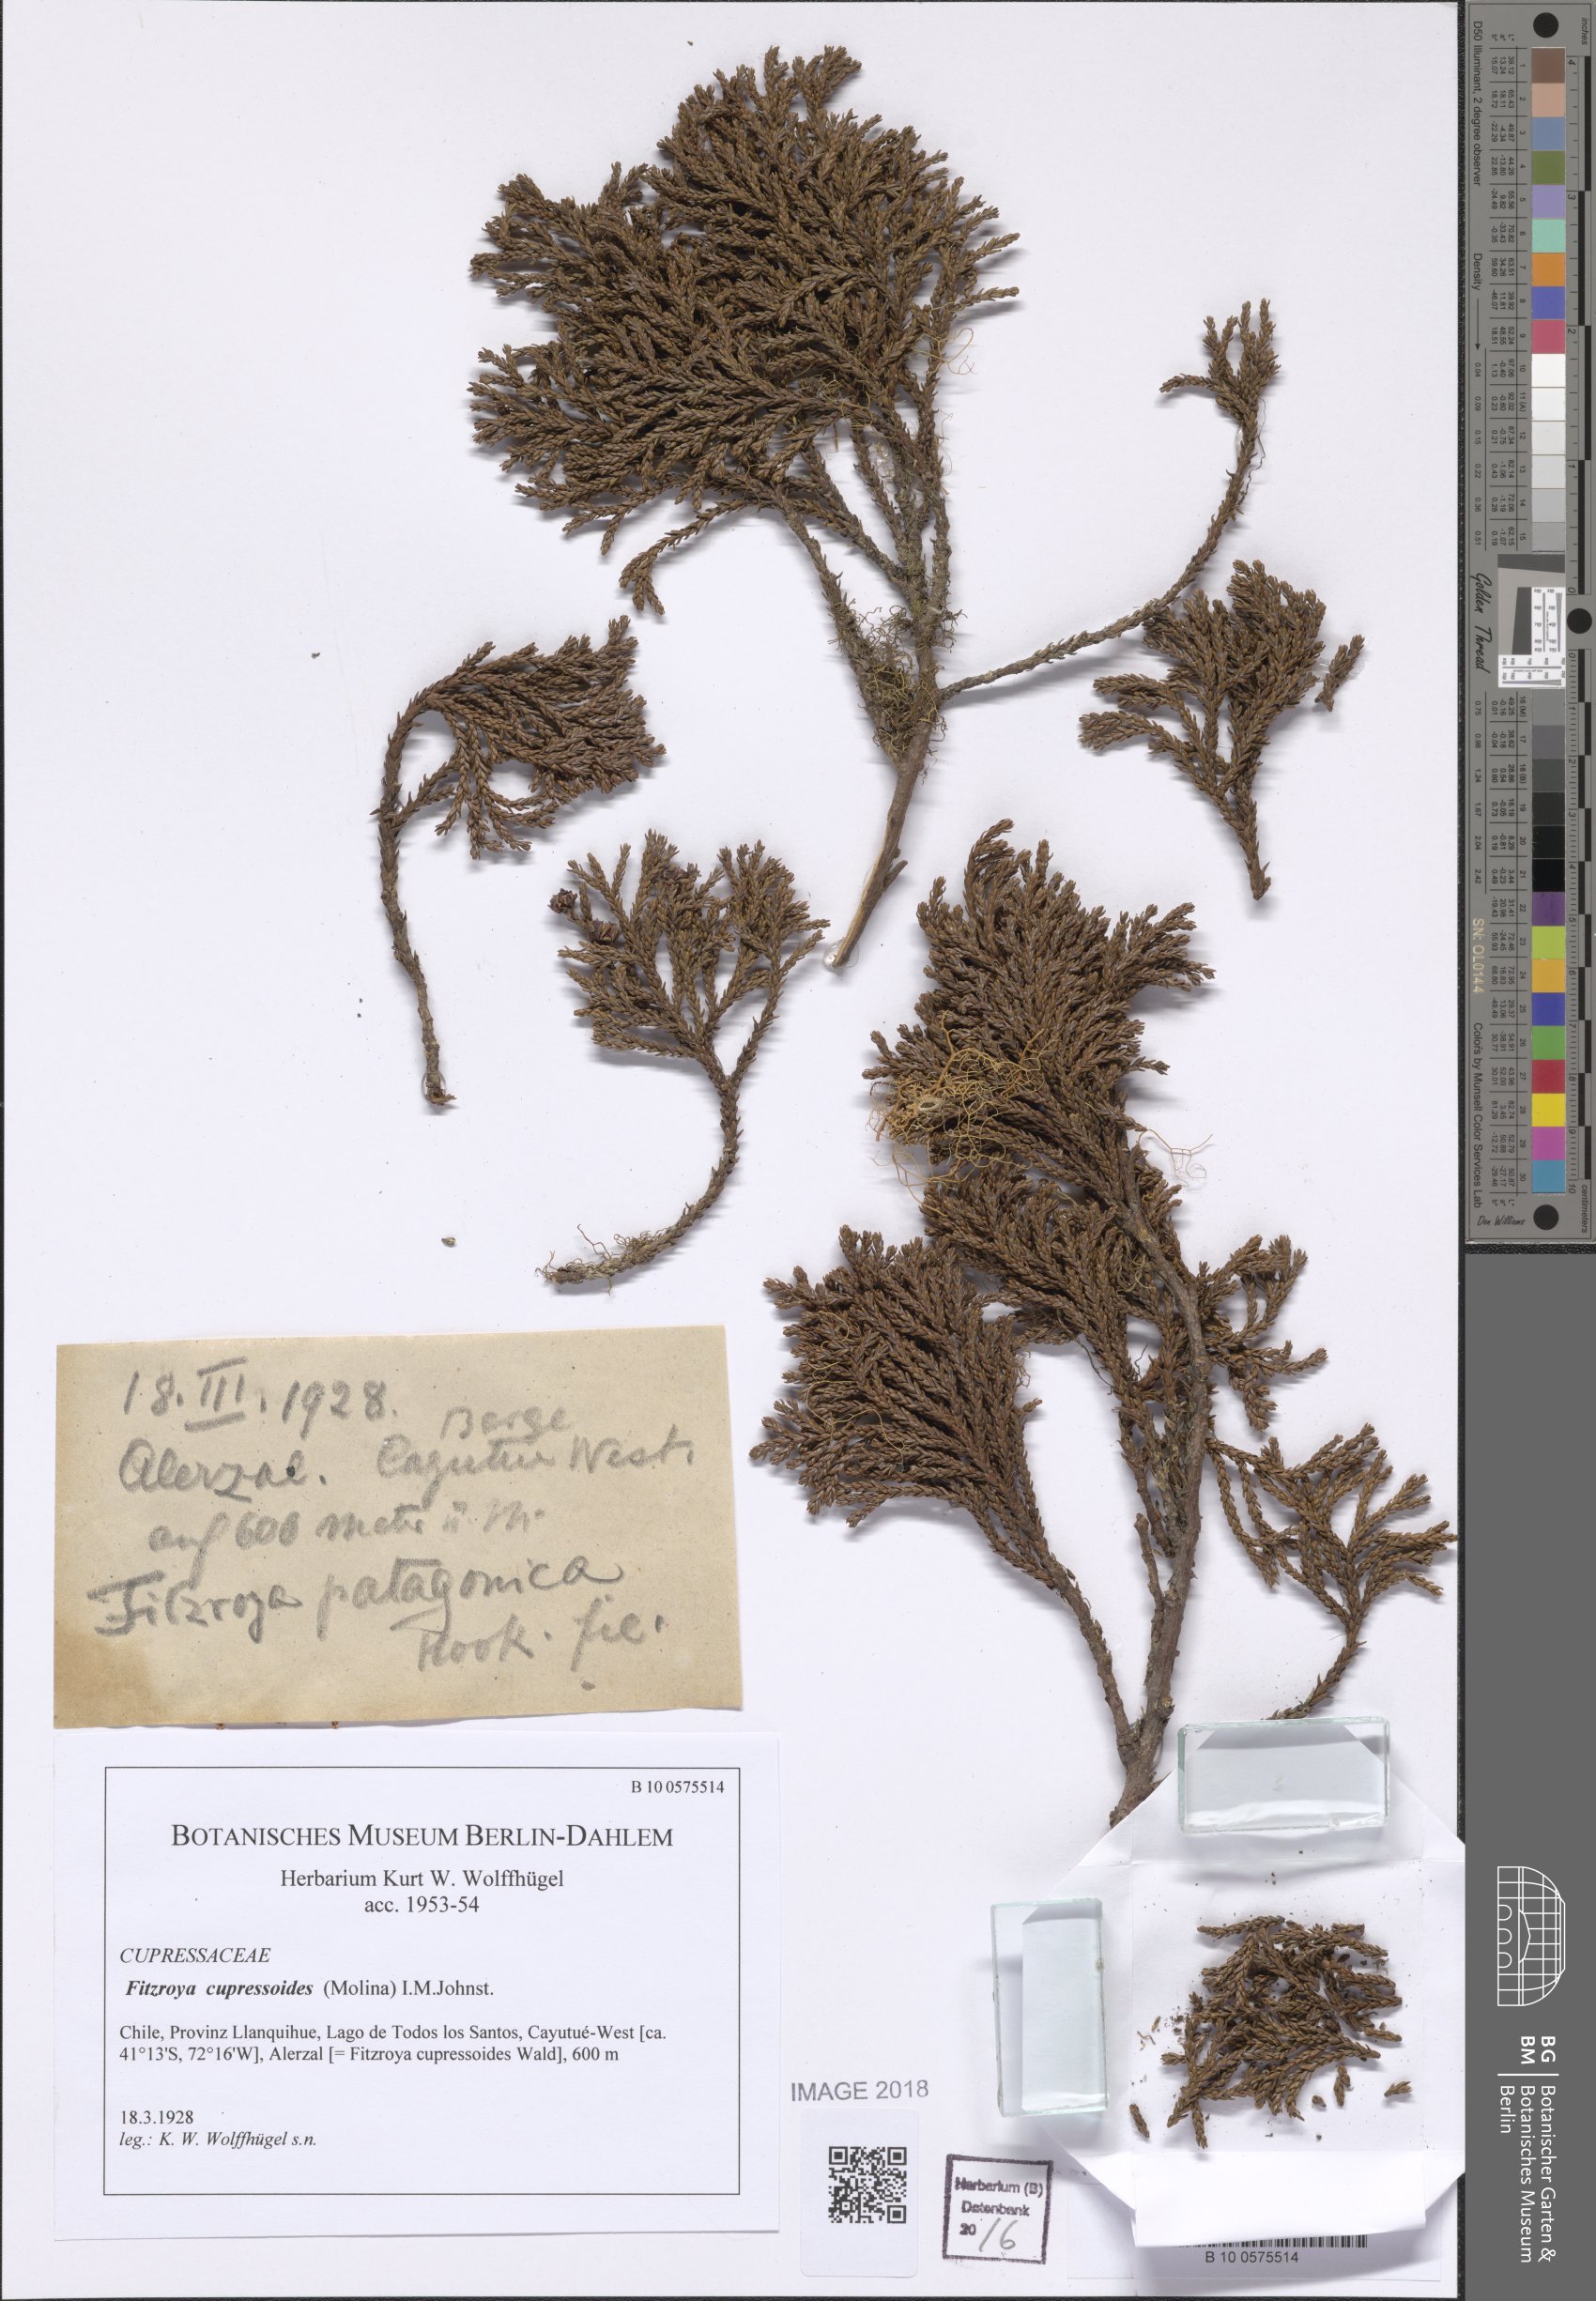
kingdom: Plantae
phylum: Tracheophyta
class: Pinopsida
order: Pinales
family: Cupressaceae
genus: Fitzroya
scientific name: Fitzroya cupressoides
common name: Patagonian cypress
